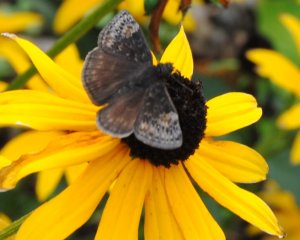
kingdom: Animalia
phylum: Arthropoda
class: Insecta
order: Lepidoptera
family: Hesperiidae
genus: Gesta
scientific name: Gesta
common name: Wild Indigo Duskywing
